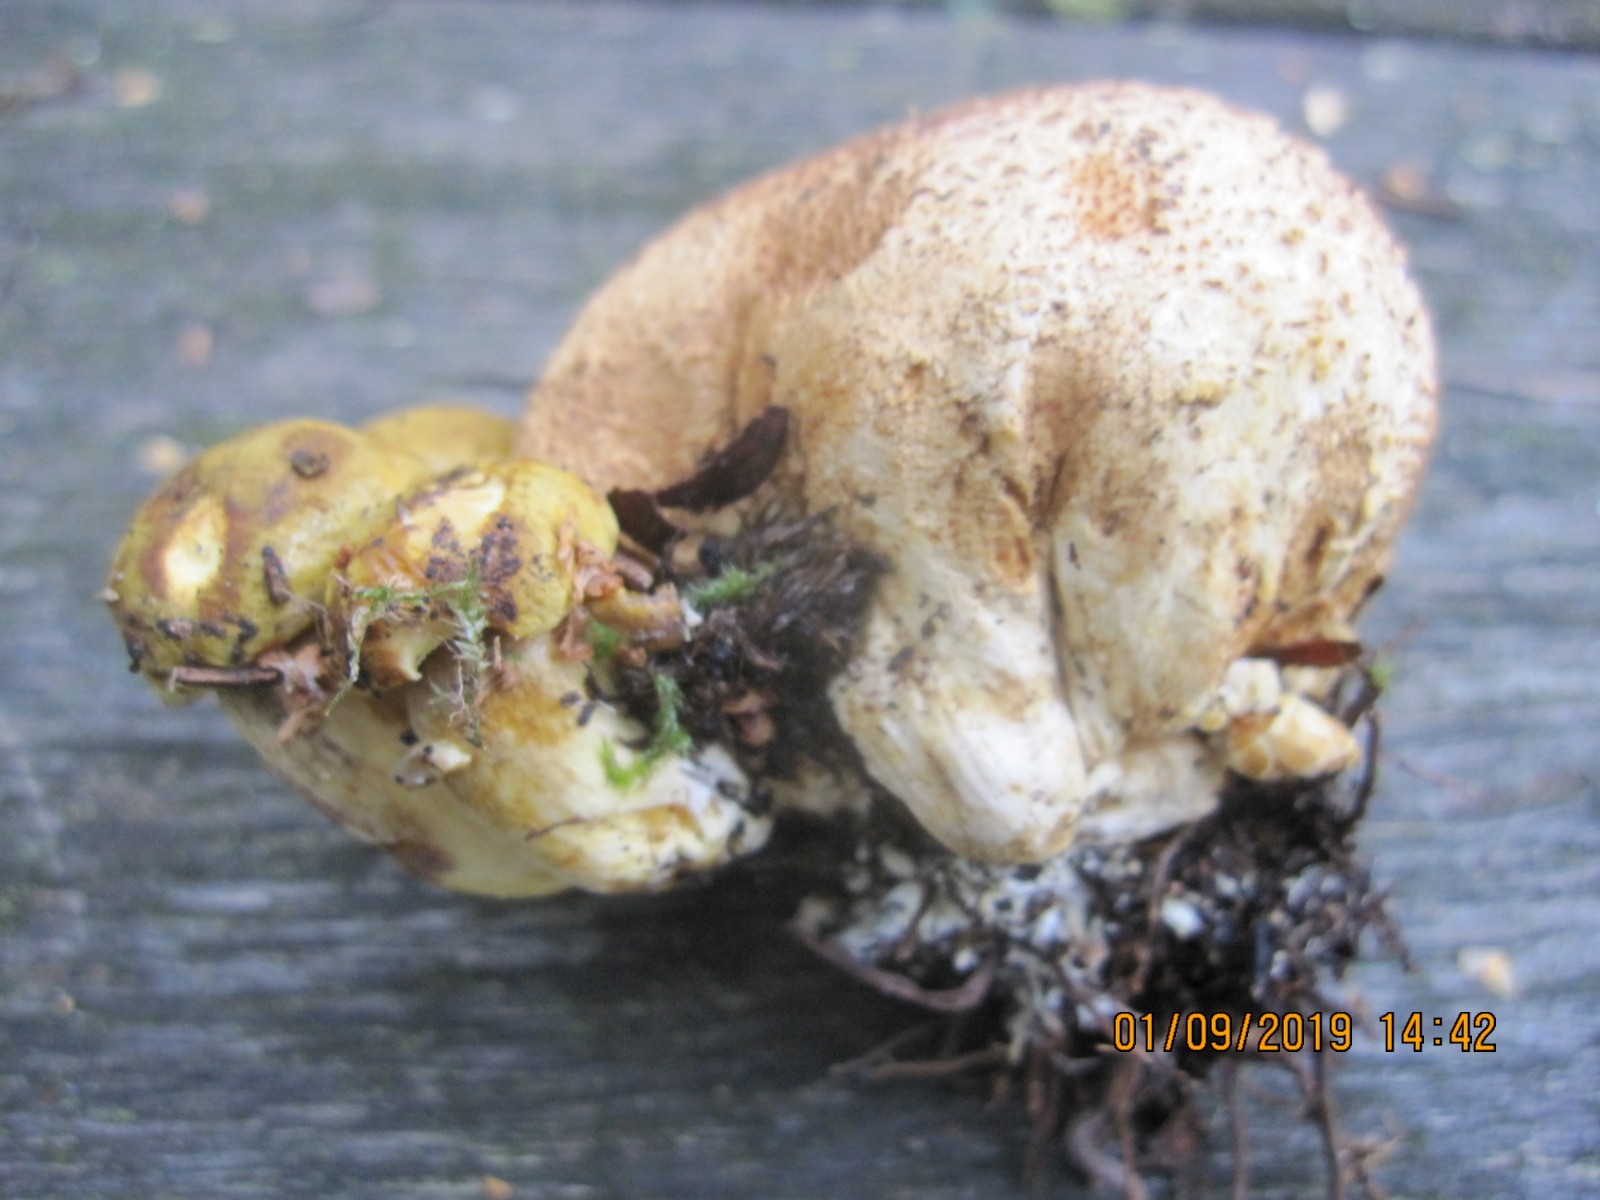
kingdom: Fungi
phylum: Basidiomycota
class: Agaricomycetes
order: Boletales
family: Boletaceae
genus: Pseudoboletus
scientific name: Pseudoboletus parasiticus
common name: snyltende rørhat
